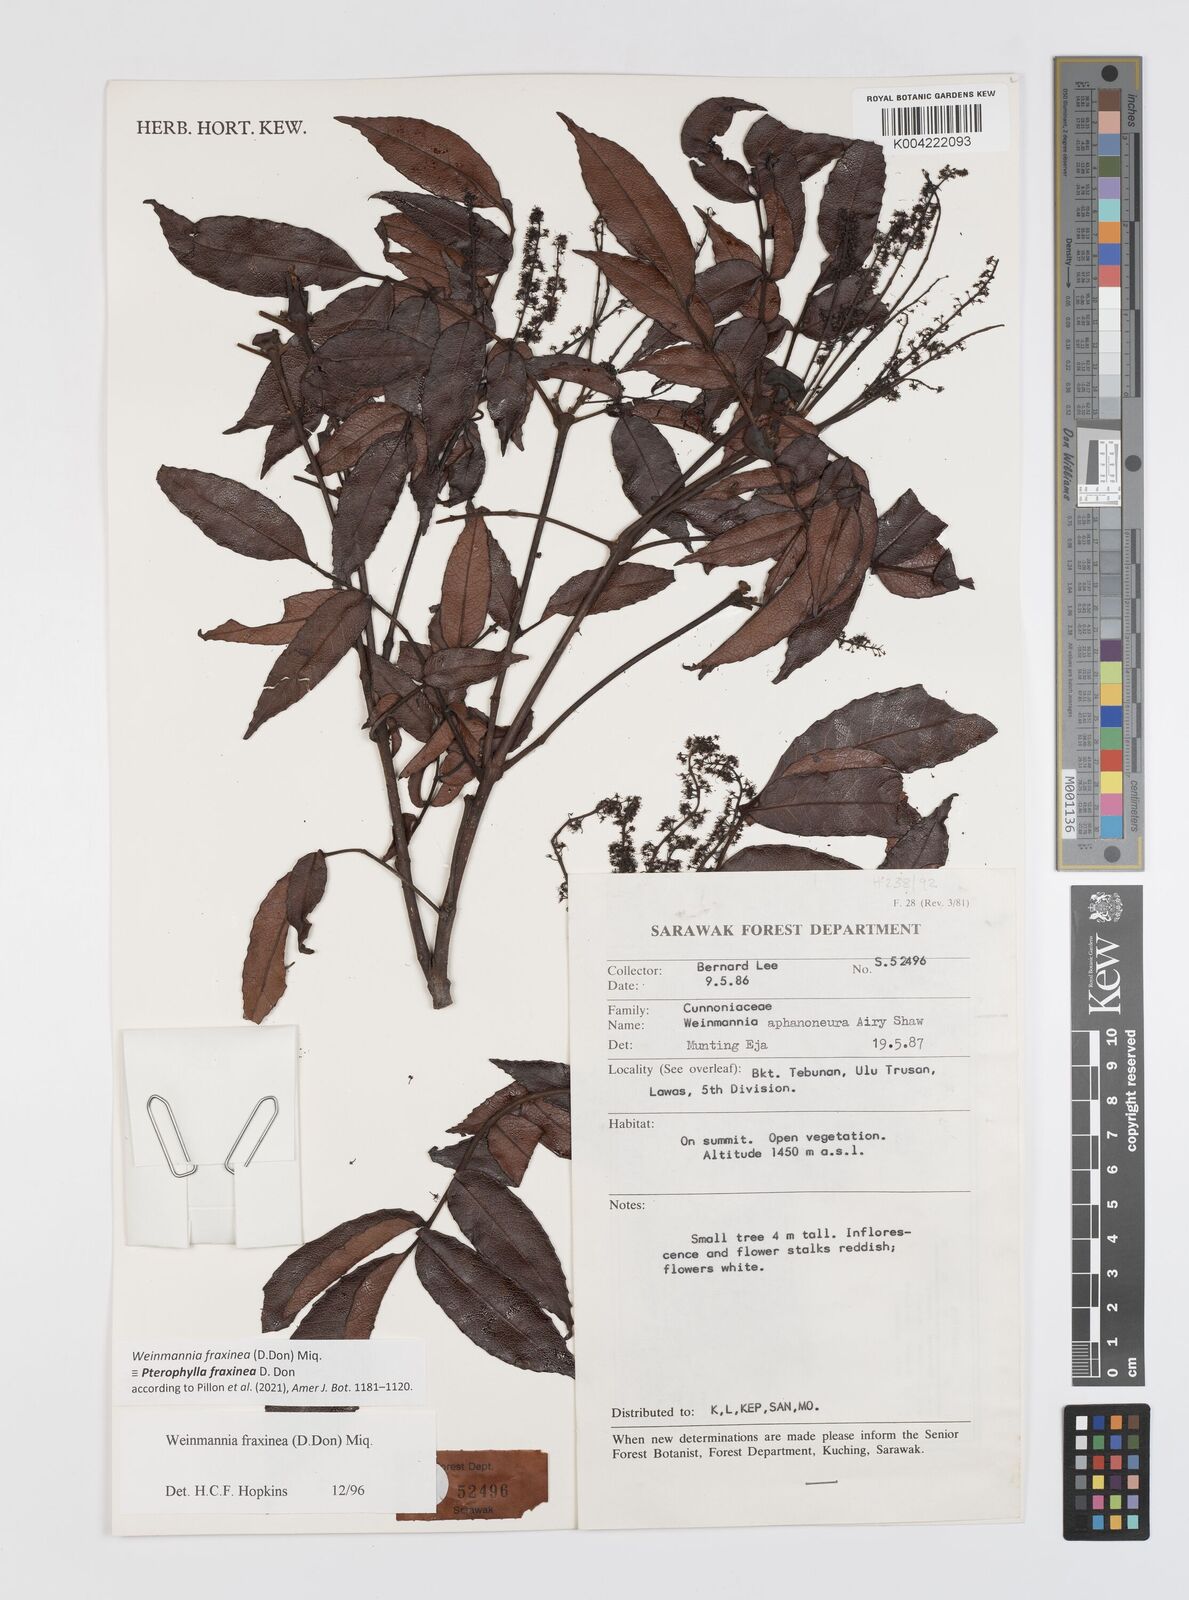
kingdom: Plantae
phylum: Tracheophyta
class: Magnoliopsida
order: Oxalidales
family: Cunoniaceae
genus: Pterophylla
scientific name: Pterophylla fraxinea
